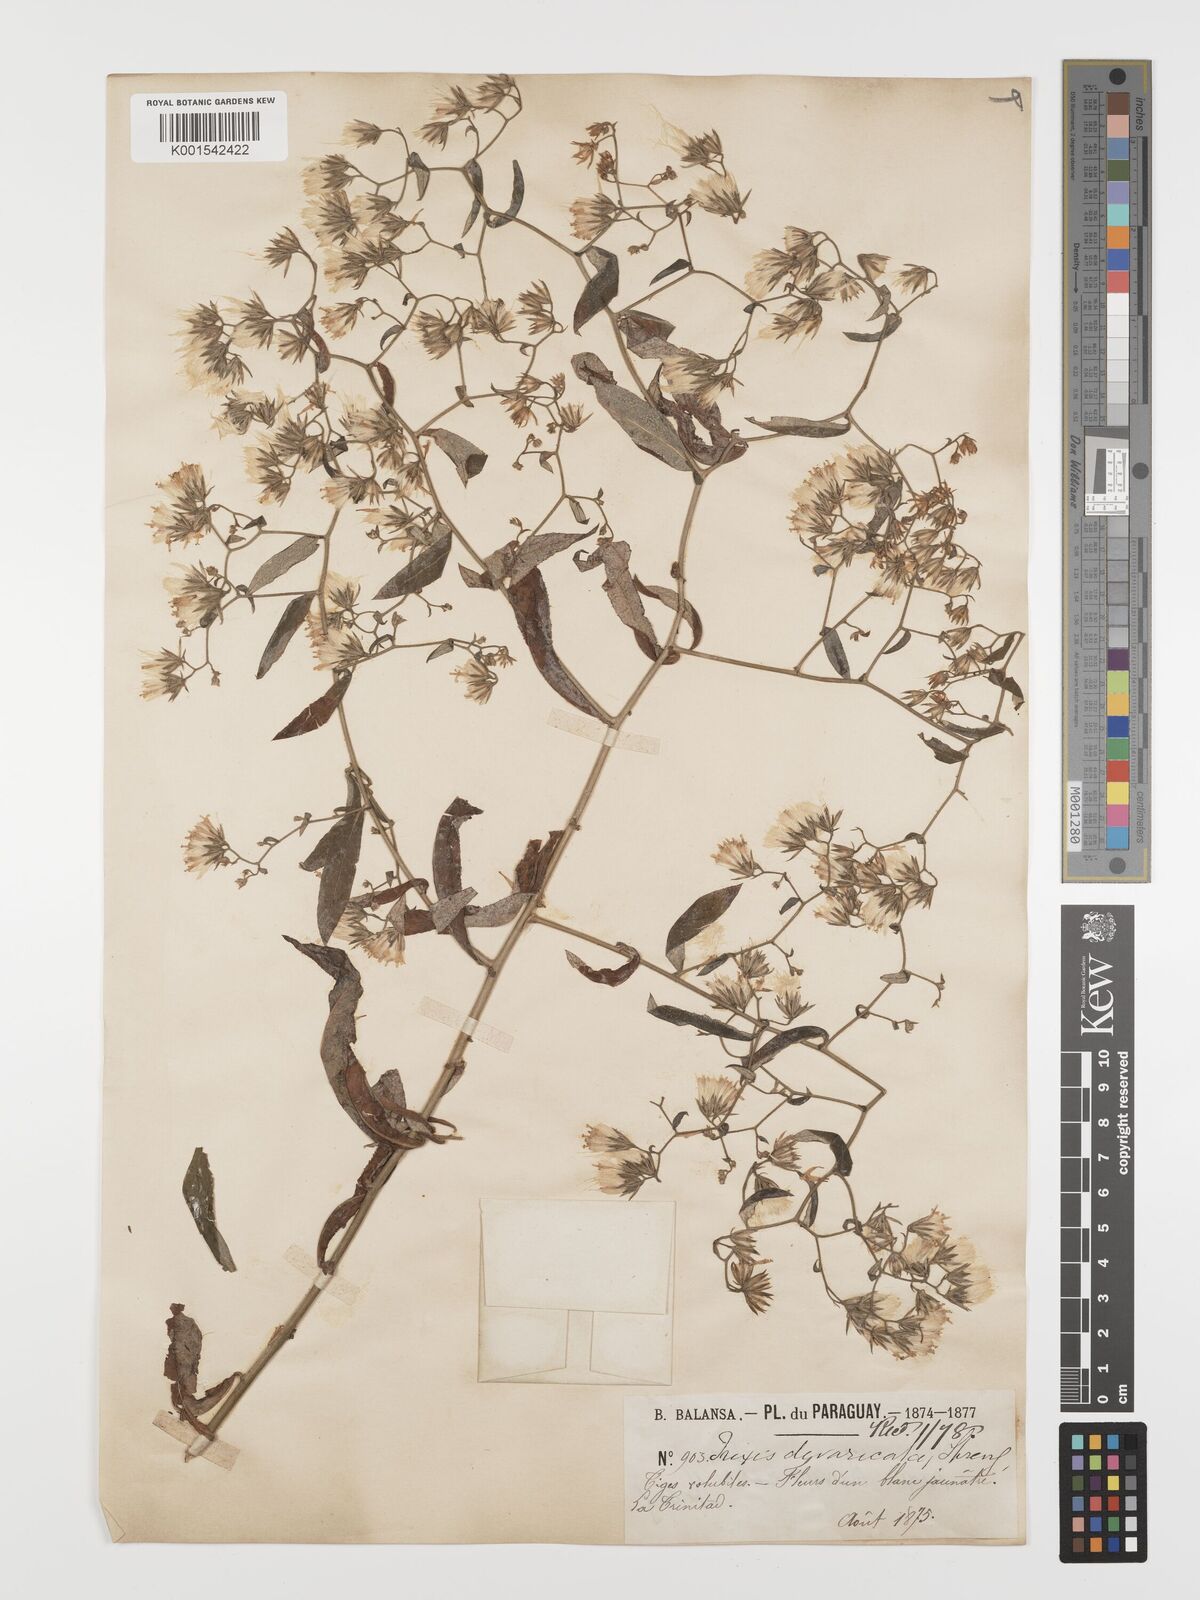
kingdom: Plantae
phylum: Tracheophyta
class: Magnoliopsida
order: Asterales
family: Asteraceae
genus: Trixis
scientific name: Trixis divaricata
